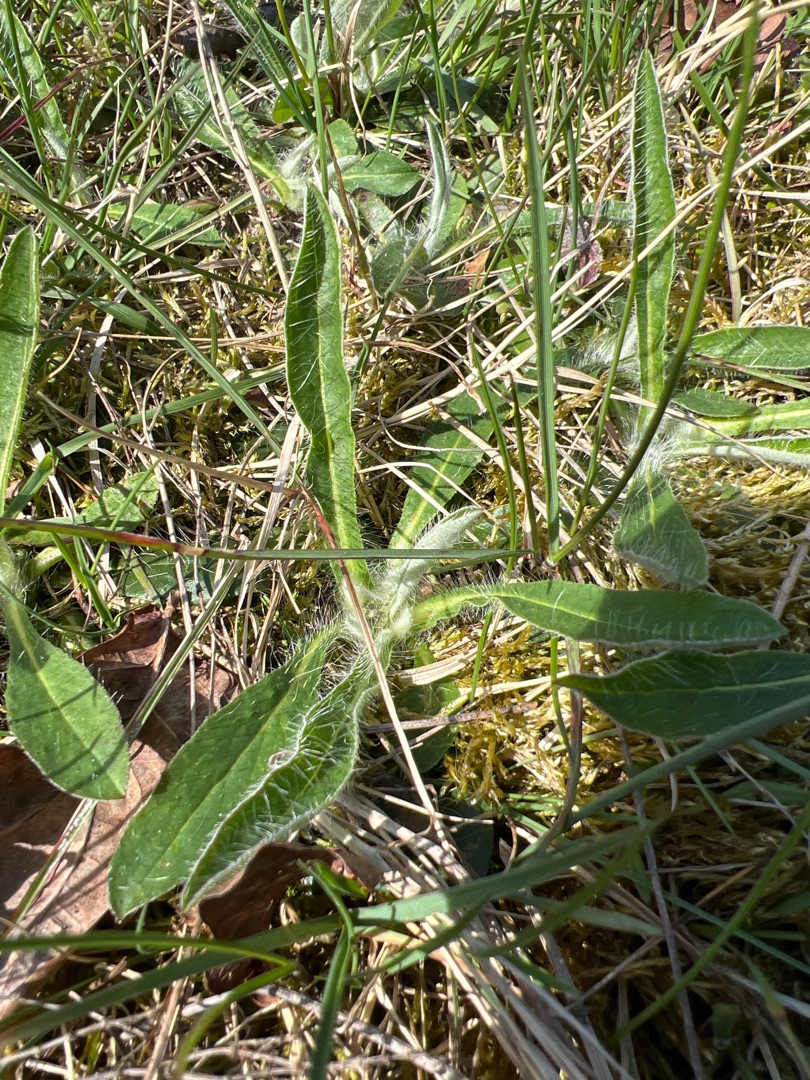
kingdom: Plantae
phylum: Tracheophyta
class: Magnoliopsida
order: Asterales
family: Asteraceae
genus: Pilosella
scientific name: Pilosella officinarum
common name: Håret høgeurt
